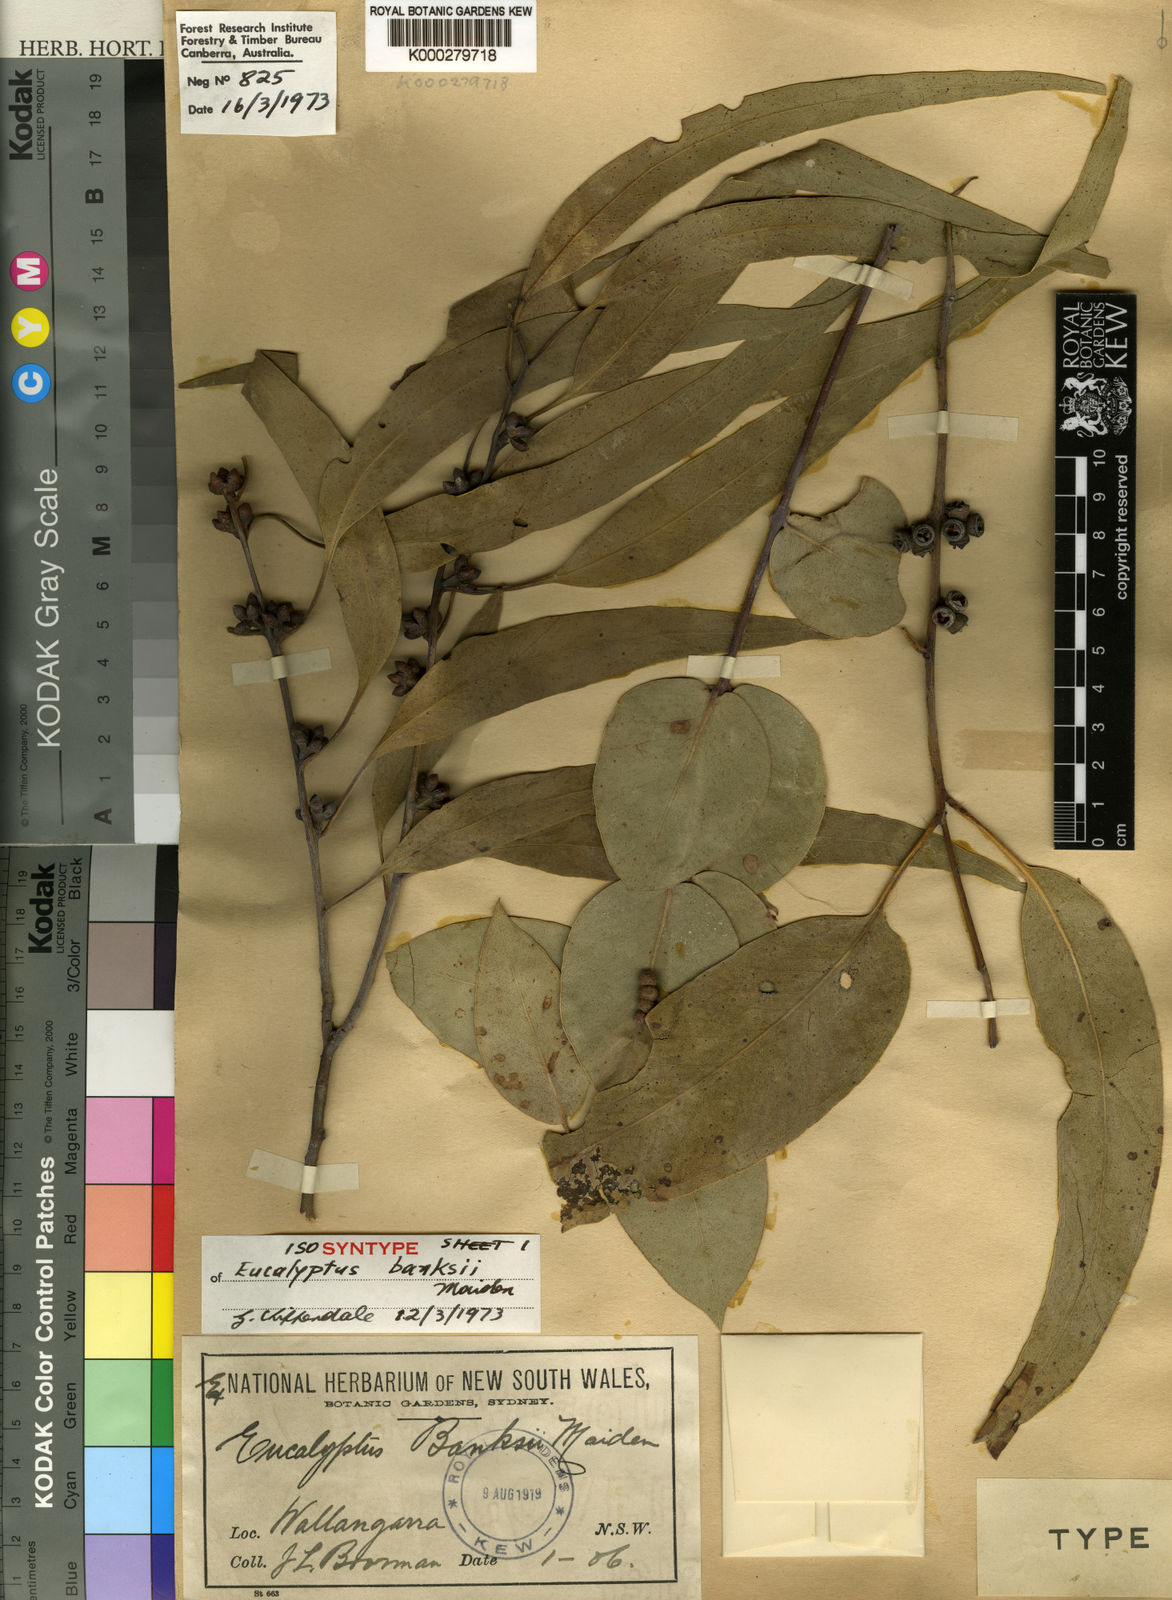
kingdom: Plantae
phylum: Tracheophyta
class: Magnoliopsida
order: Myrtales
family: Myrtaceae
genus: Eucalyptus
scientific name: Eucalyptus banksii
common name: Tenterfield woollybutt
